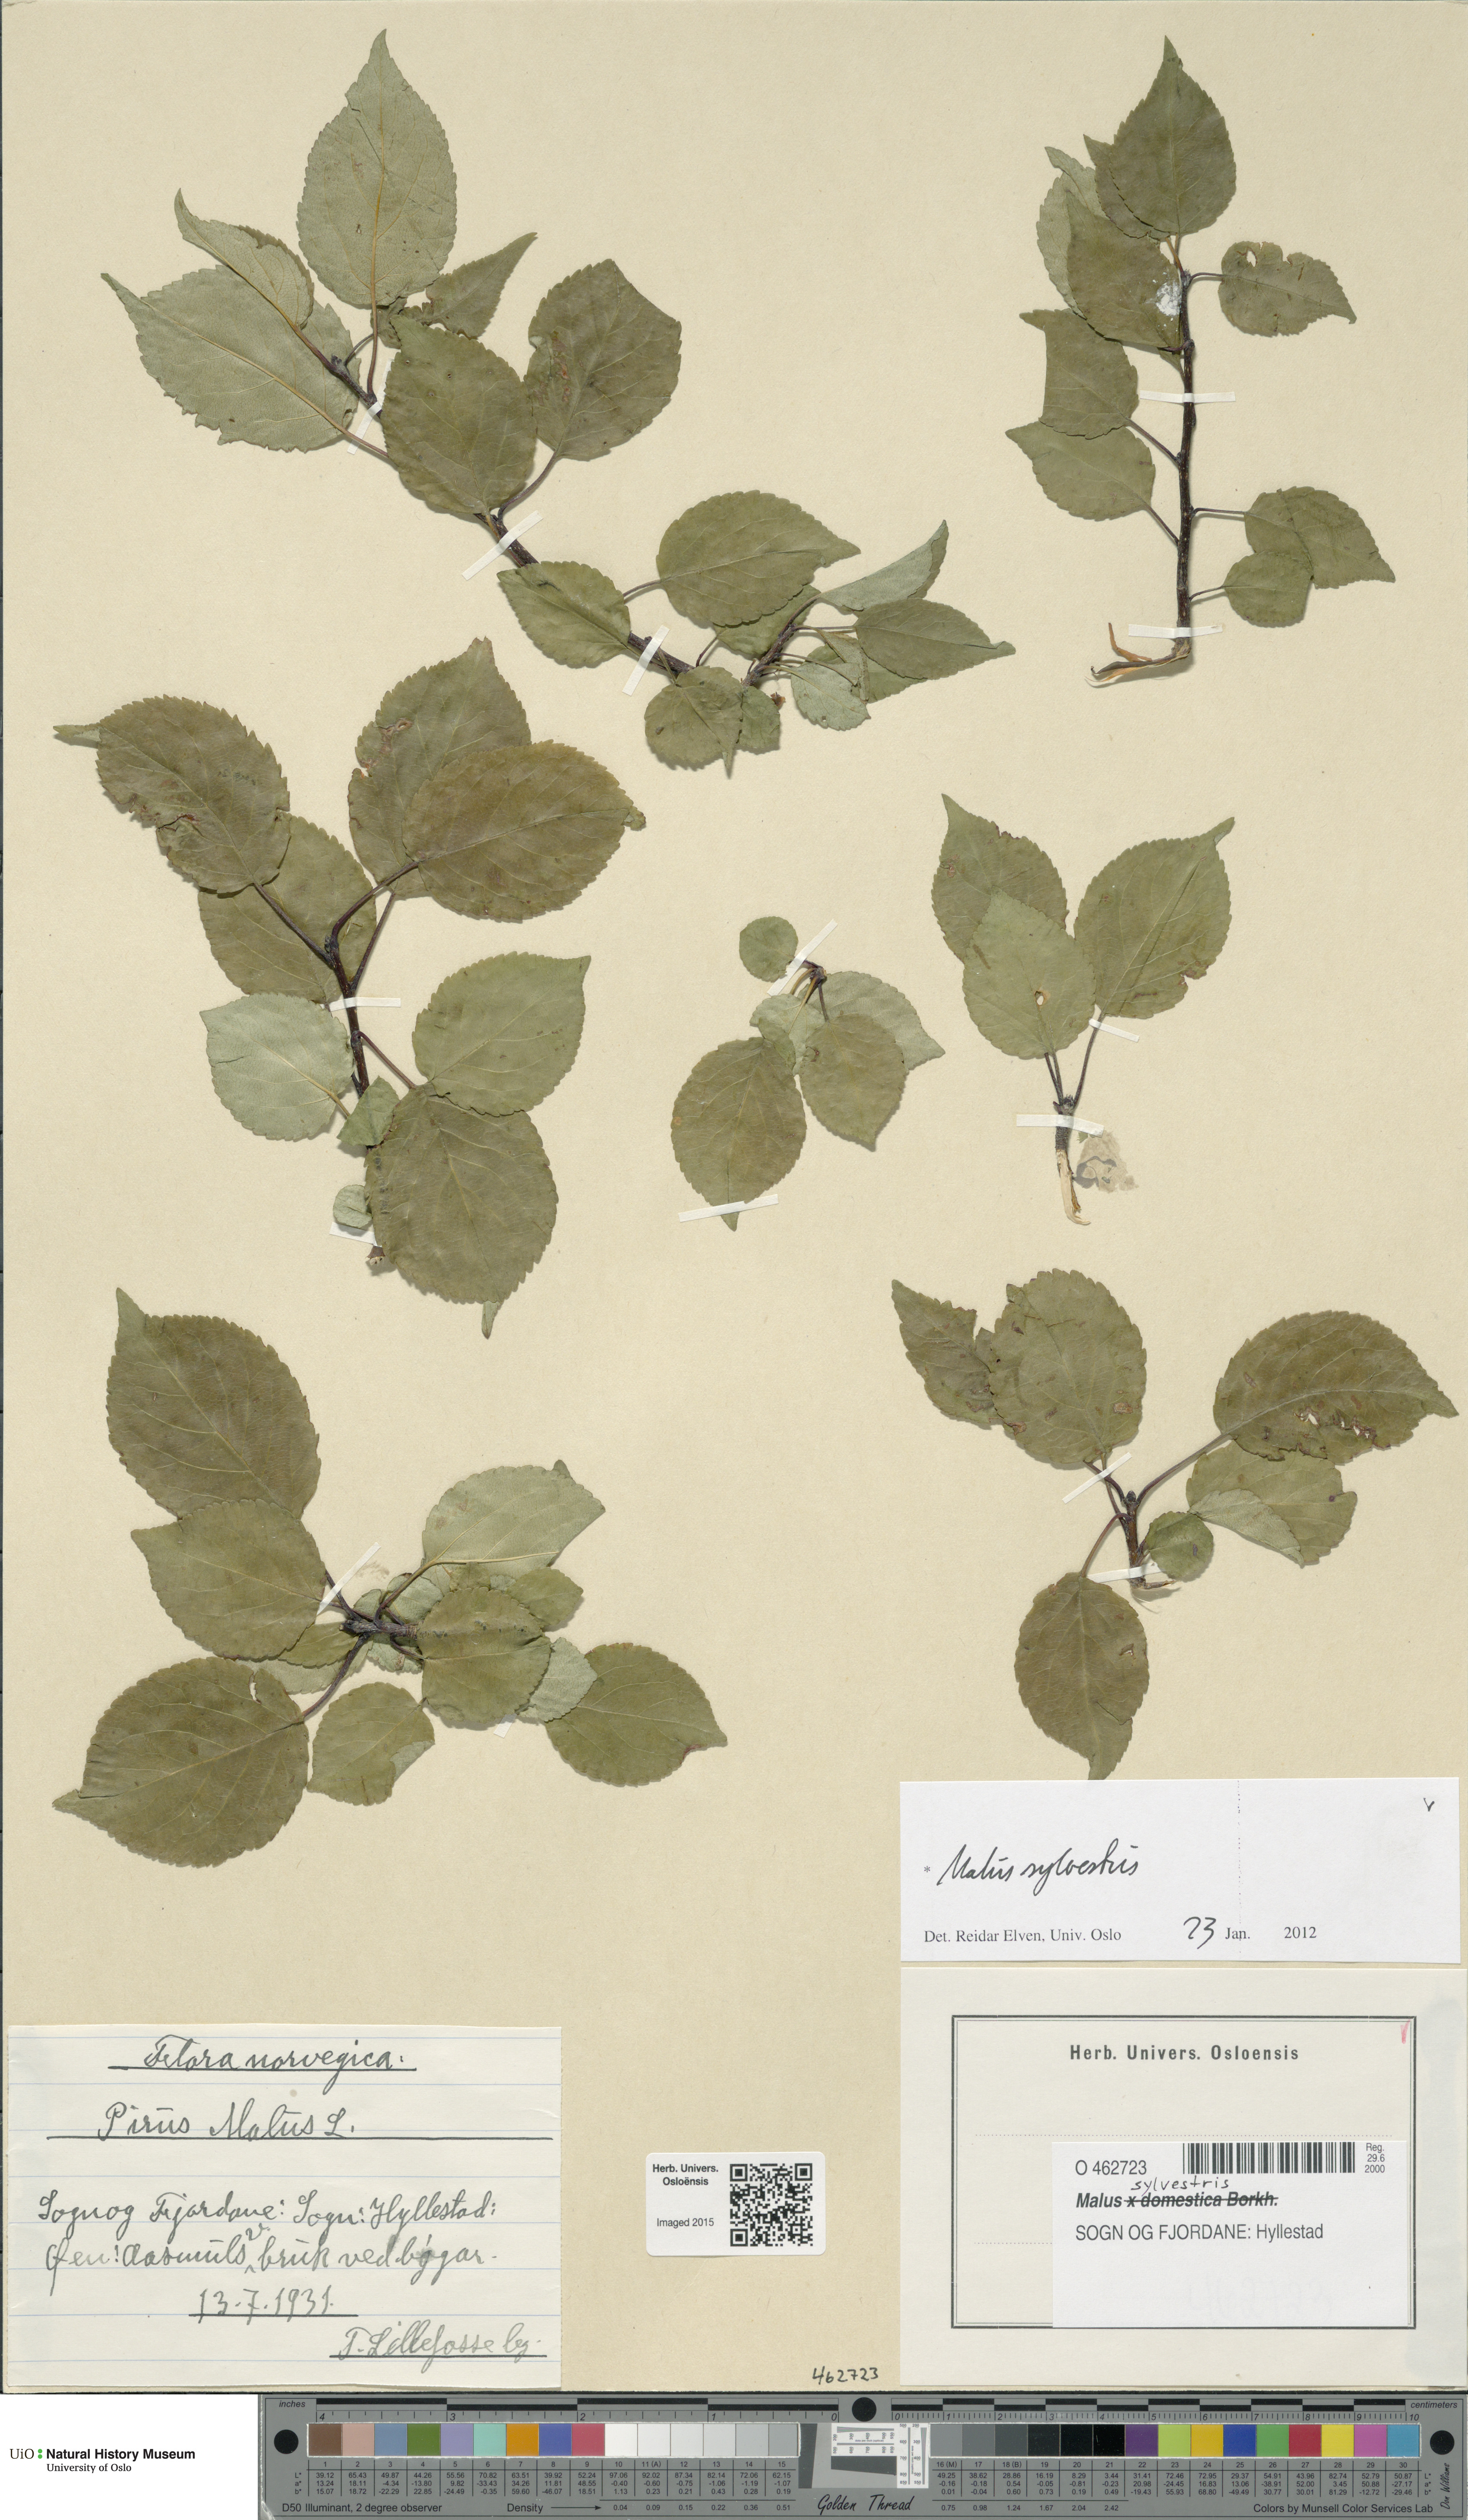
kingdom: Plantae
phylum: Tracheophyta
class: Magnoliopsida
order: Rosales
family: Rosaceae
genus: Malus
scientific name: Malus sylvestris
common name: Crab apple
